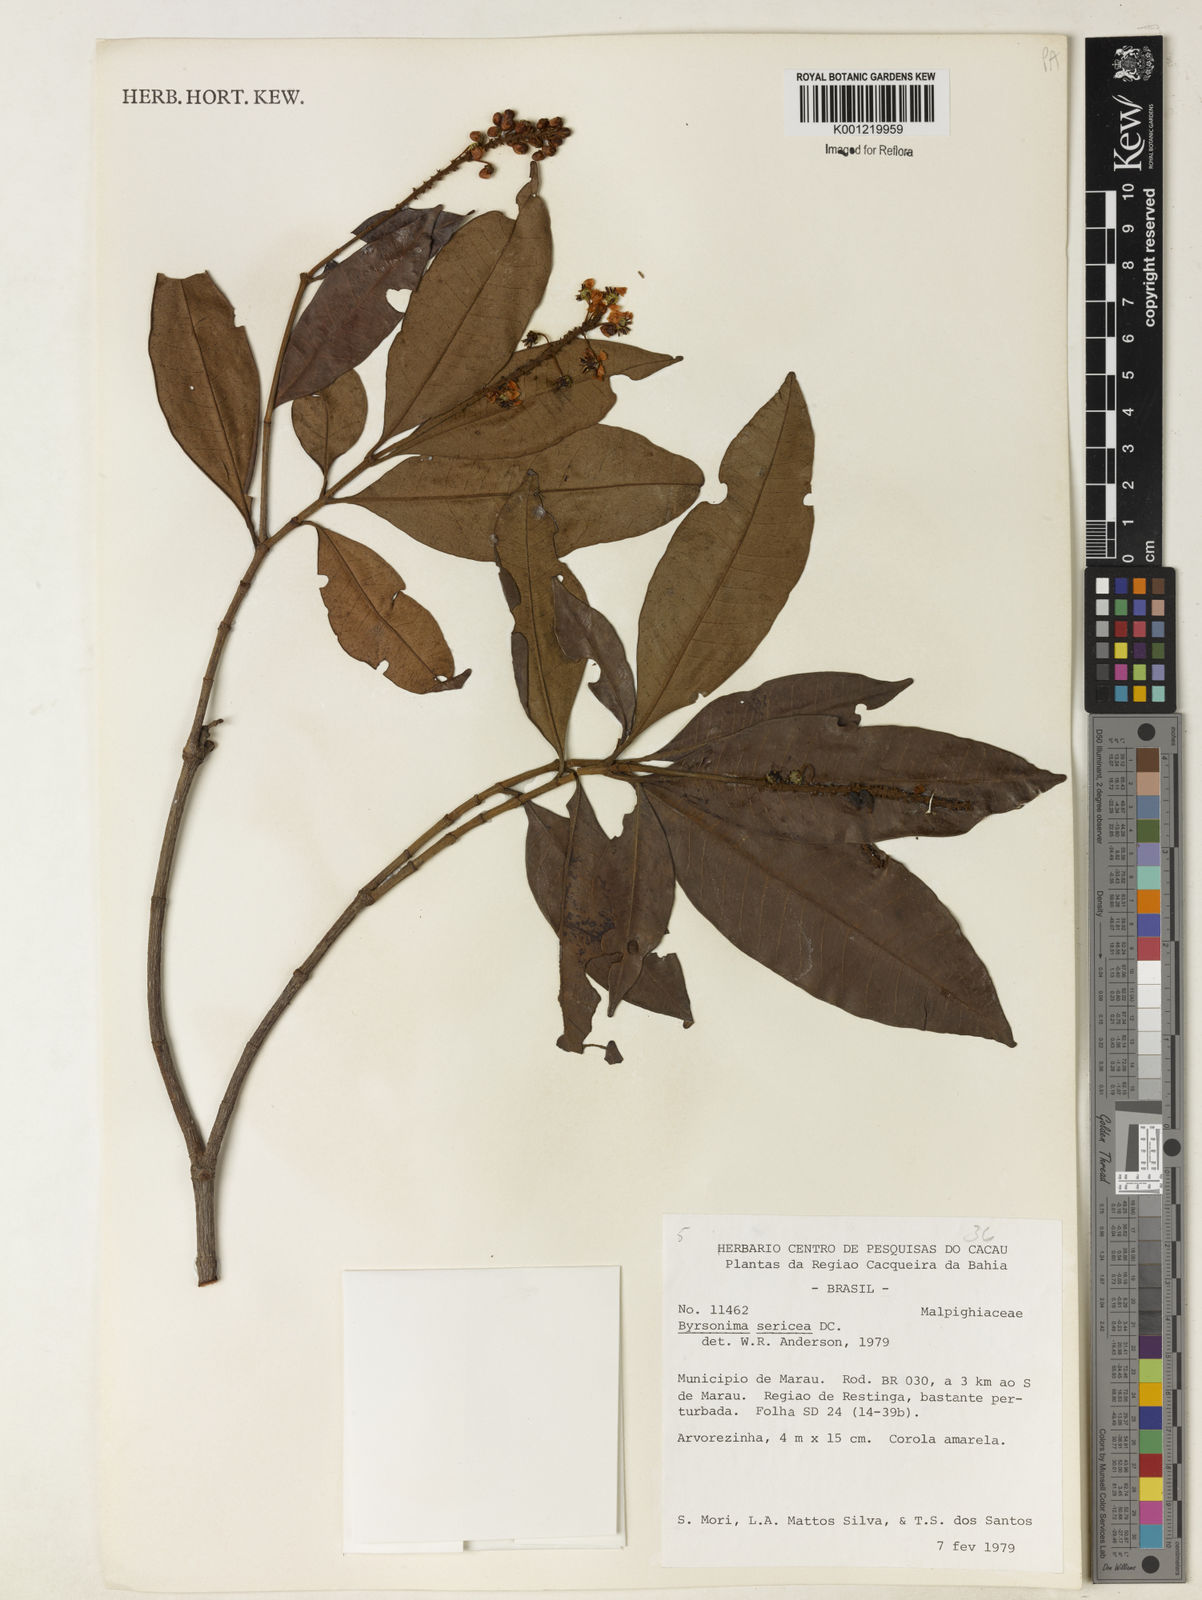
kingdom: Plantae
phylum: Tracheophyta
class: Magnoliopsida
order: Malpighiales
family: Malpighiaceae
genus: Byrsonima
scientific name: Byrsonima sericea
